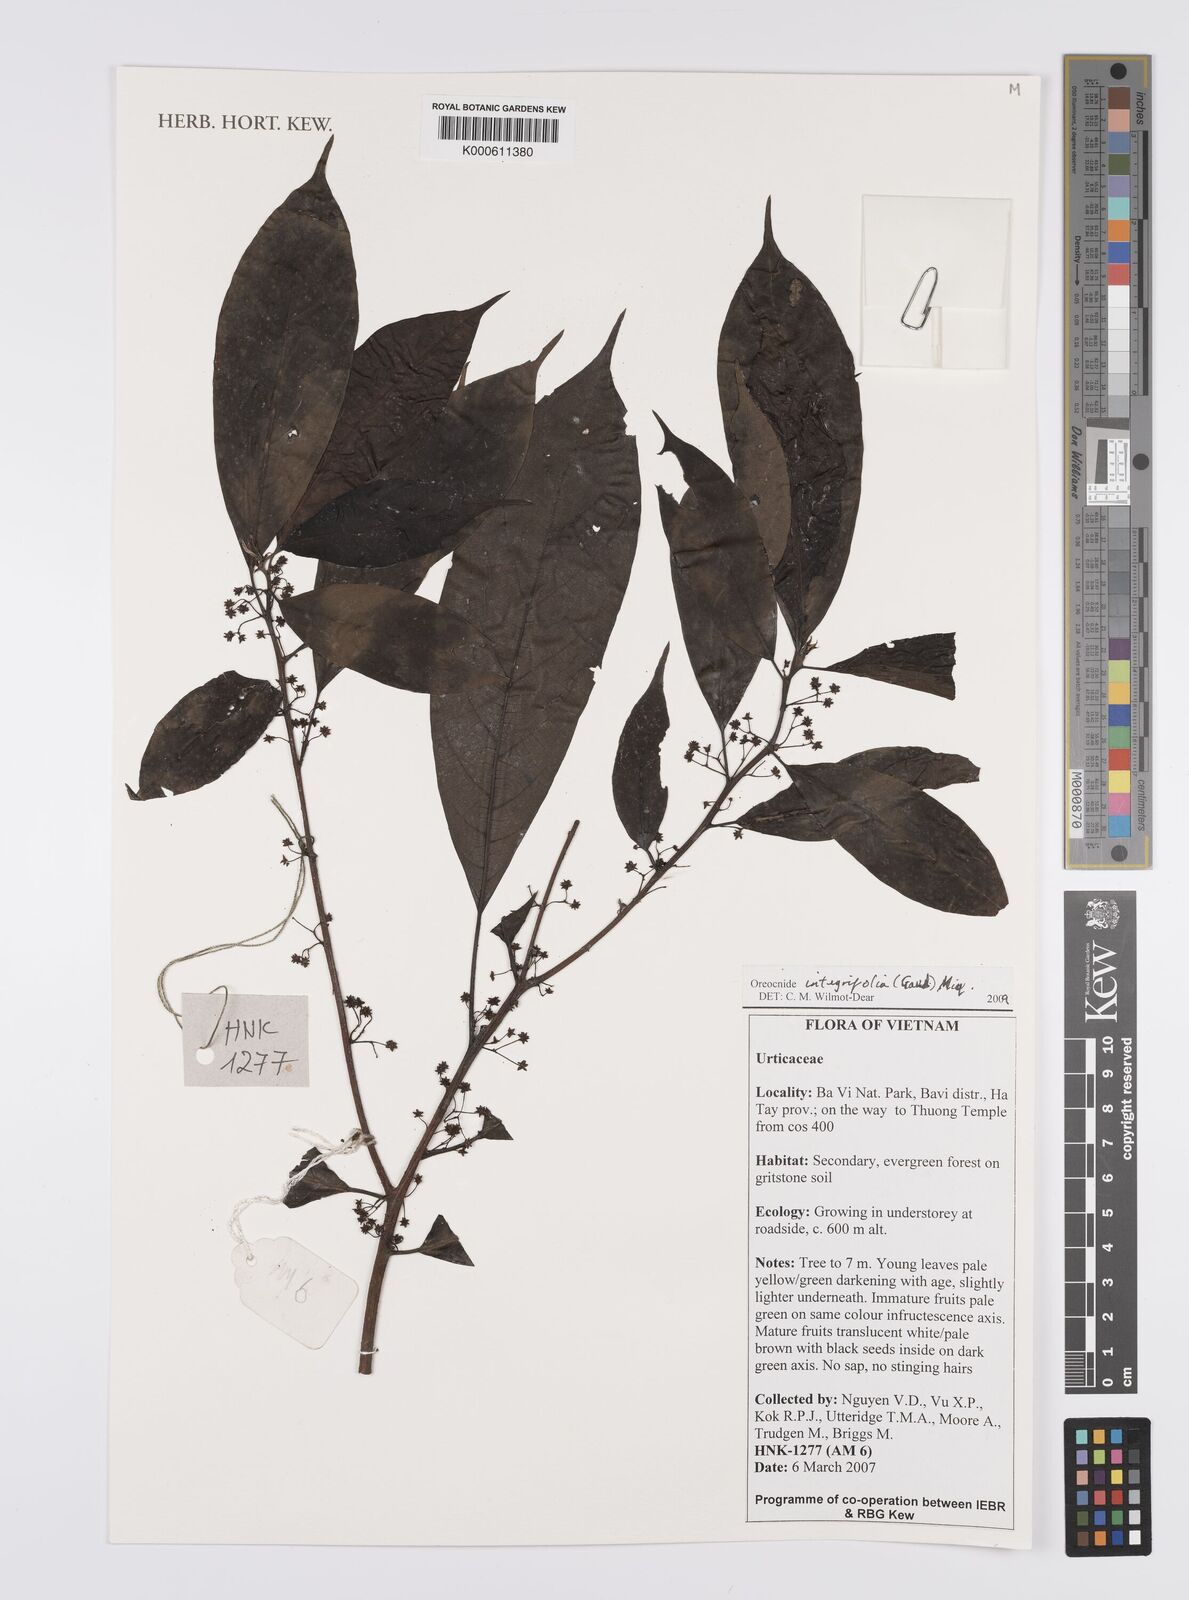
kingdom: Plantae
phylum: Tracheophyta
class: Magnoliopsida
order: Rosales
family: Urticaceae
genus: Oreocnide
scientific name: Oreocnide integrifolia
